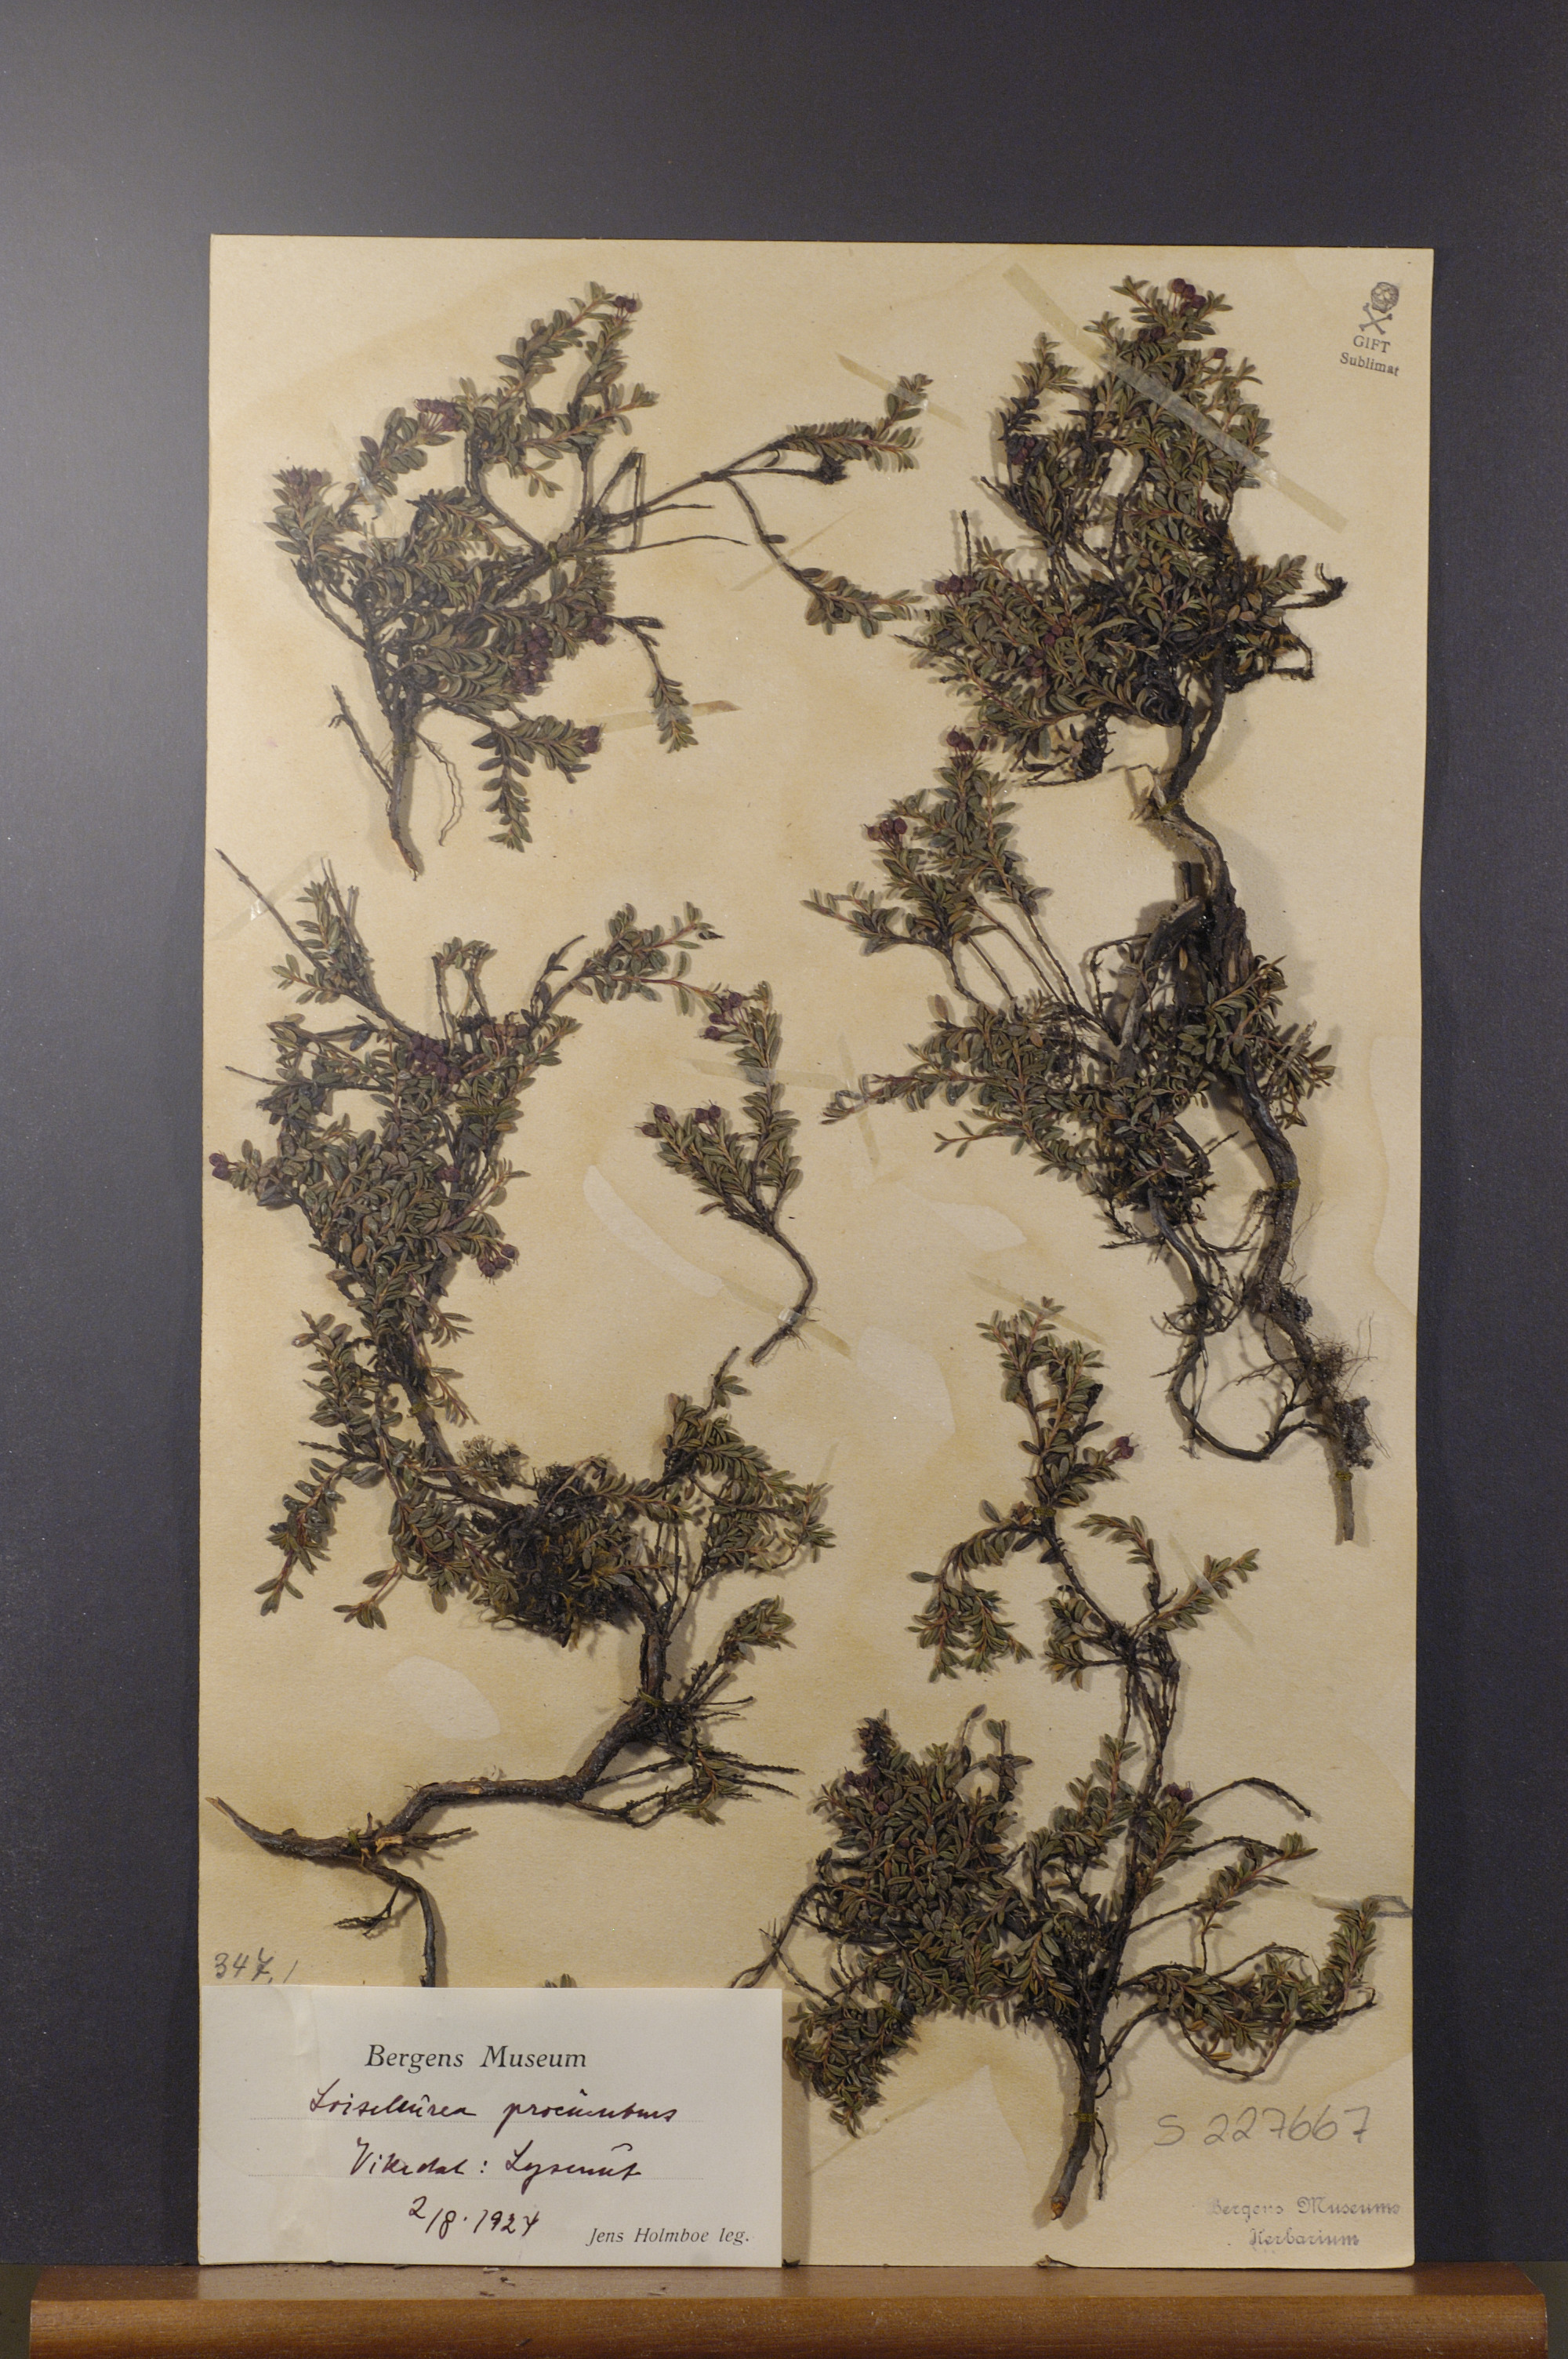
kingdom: Plantae
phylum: Tracheophyta
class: Magnoliopsida
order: Ericales
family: Ericaceae
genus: Kalmia
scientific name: Kalmia procumbens
